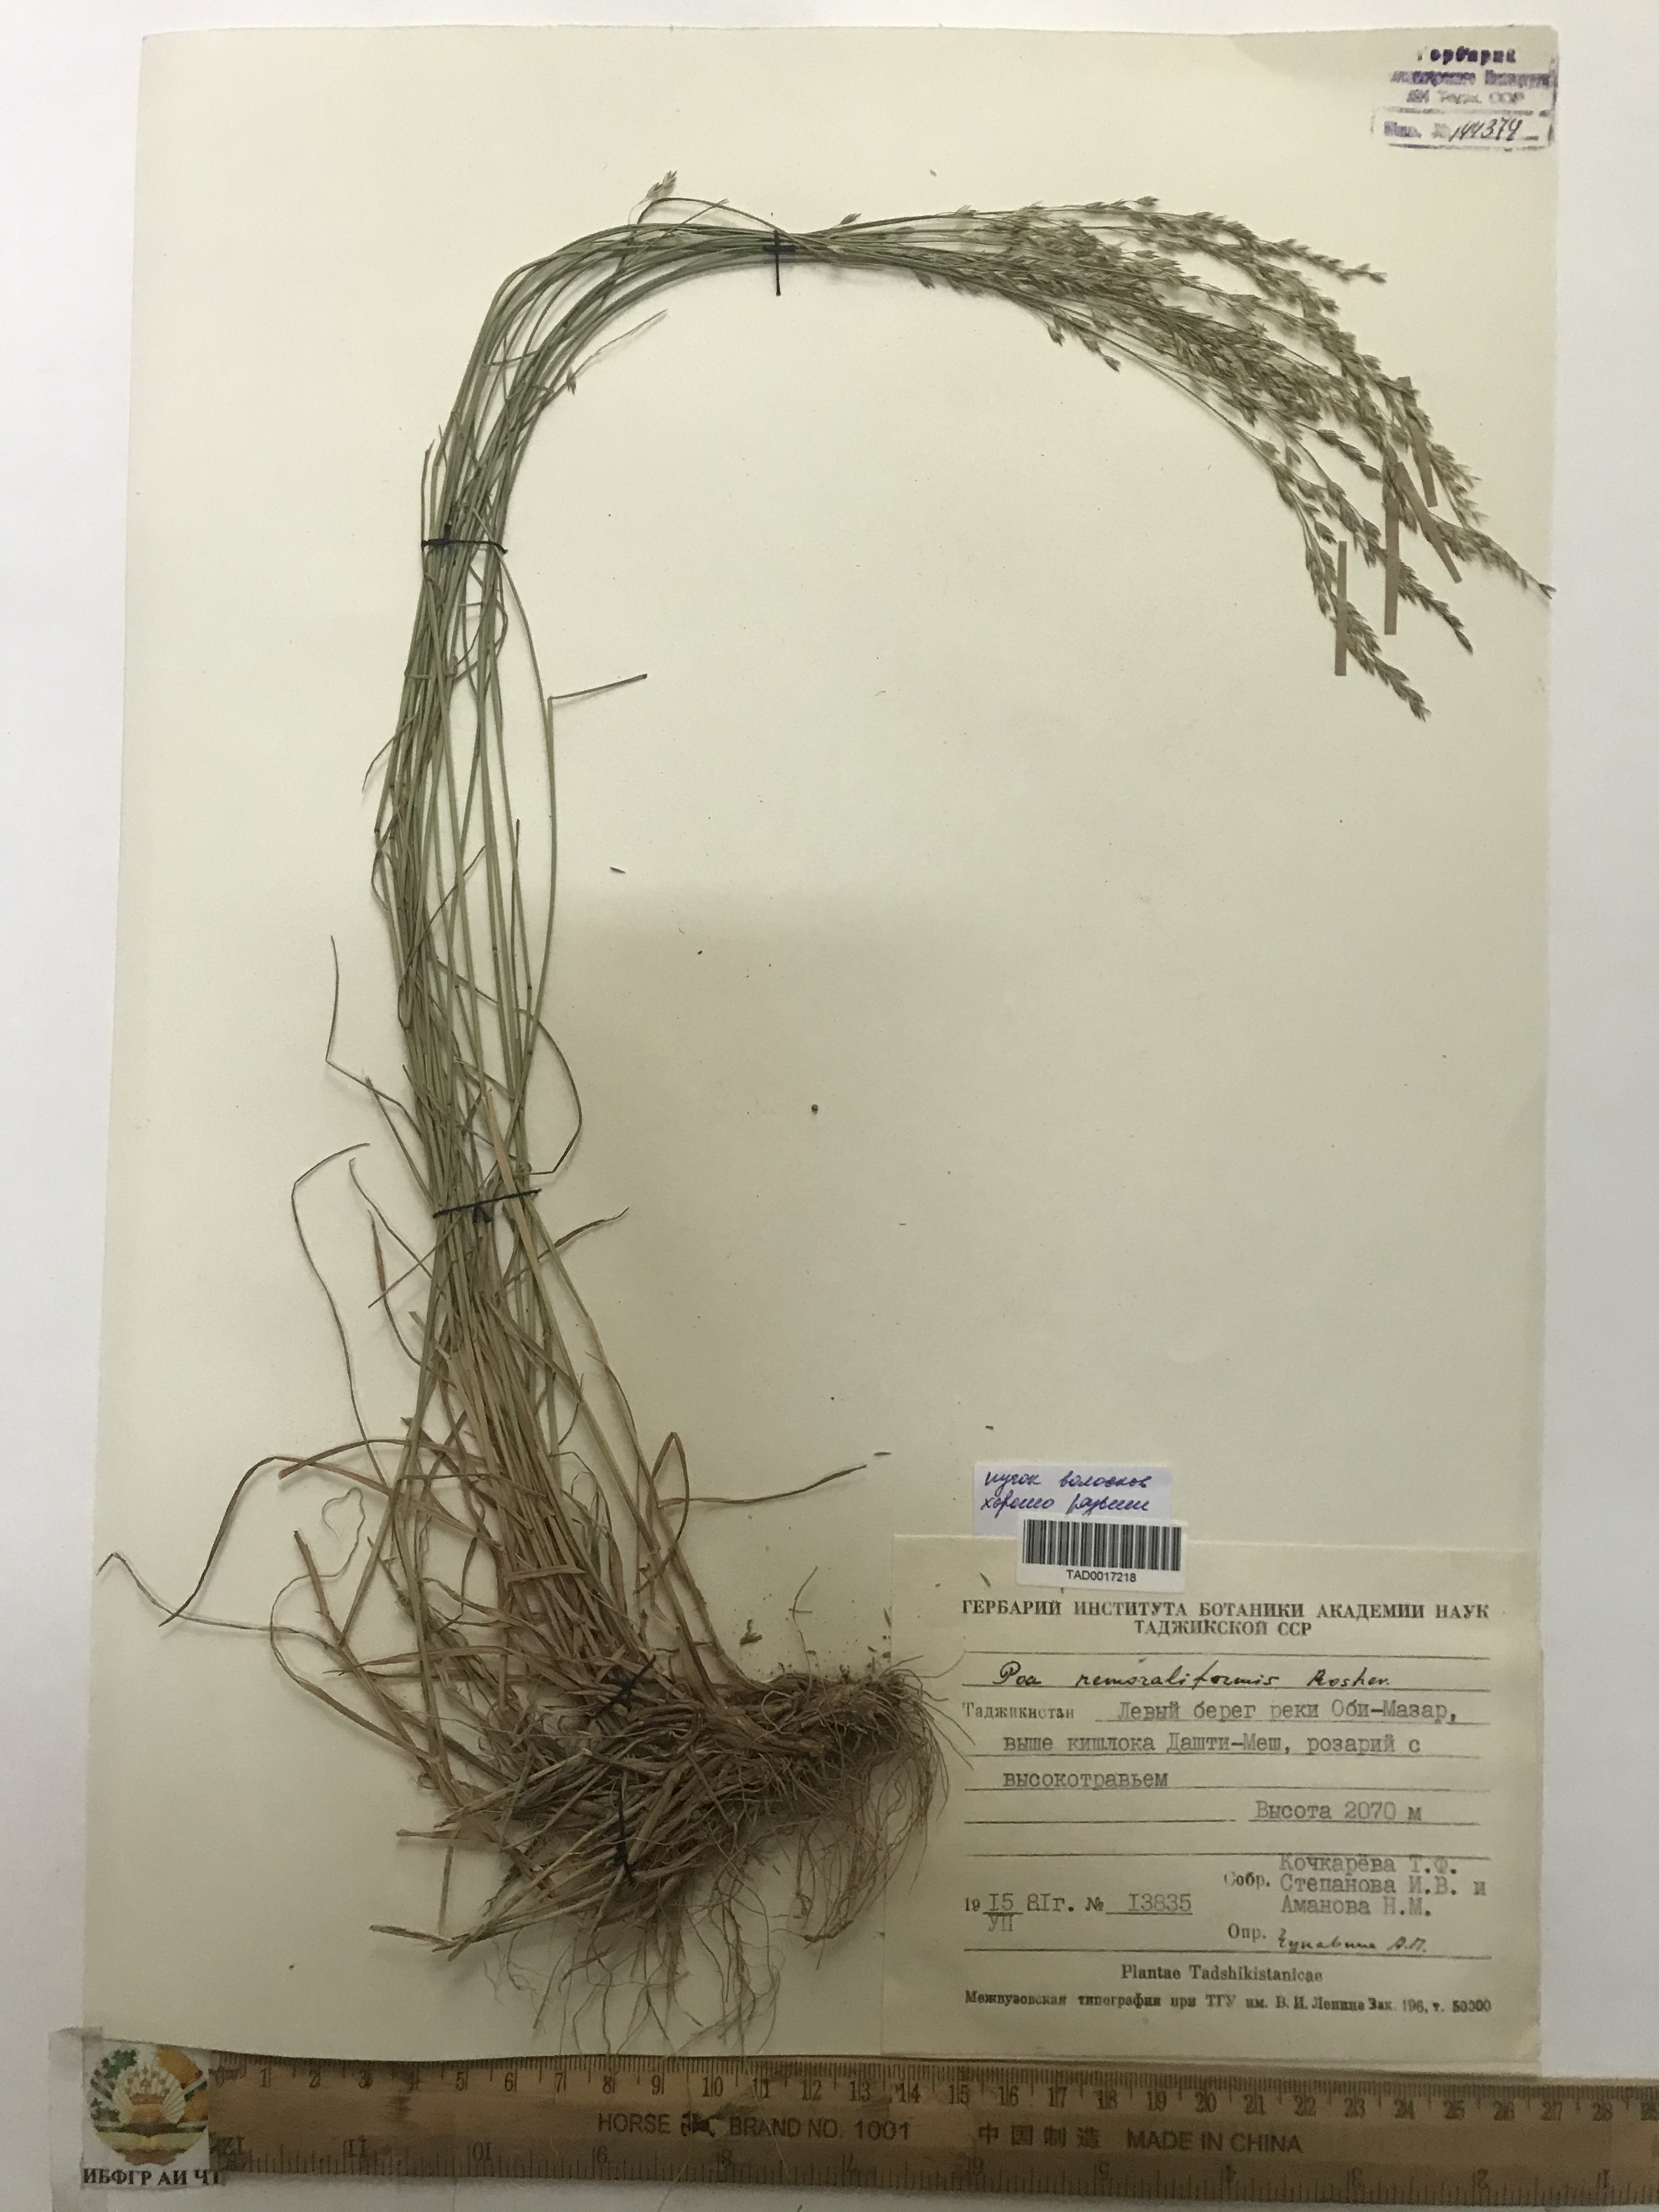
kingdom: Plantae
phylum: Tracheophyta
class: Liliopsida
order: Poales
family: Poaceae
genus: Poa
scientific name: Poa urssulensis
